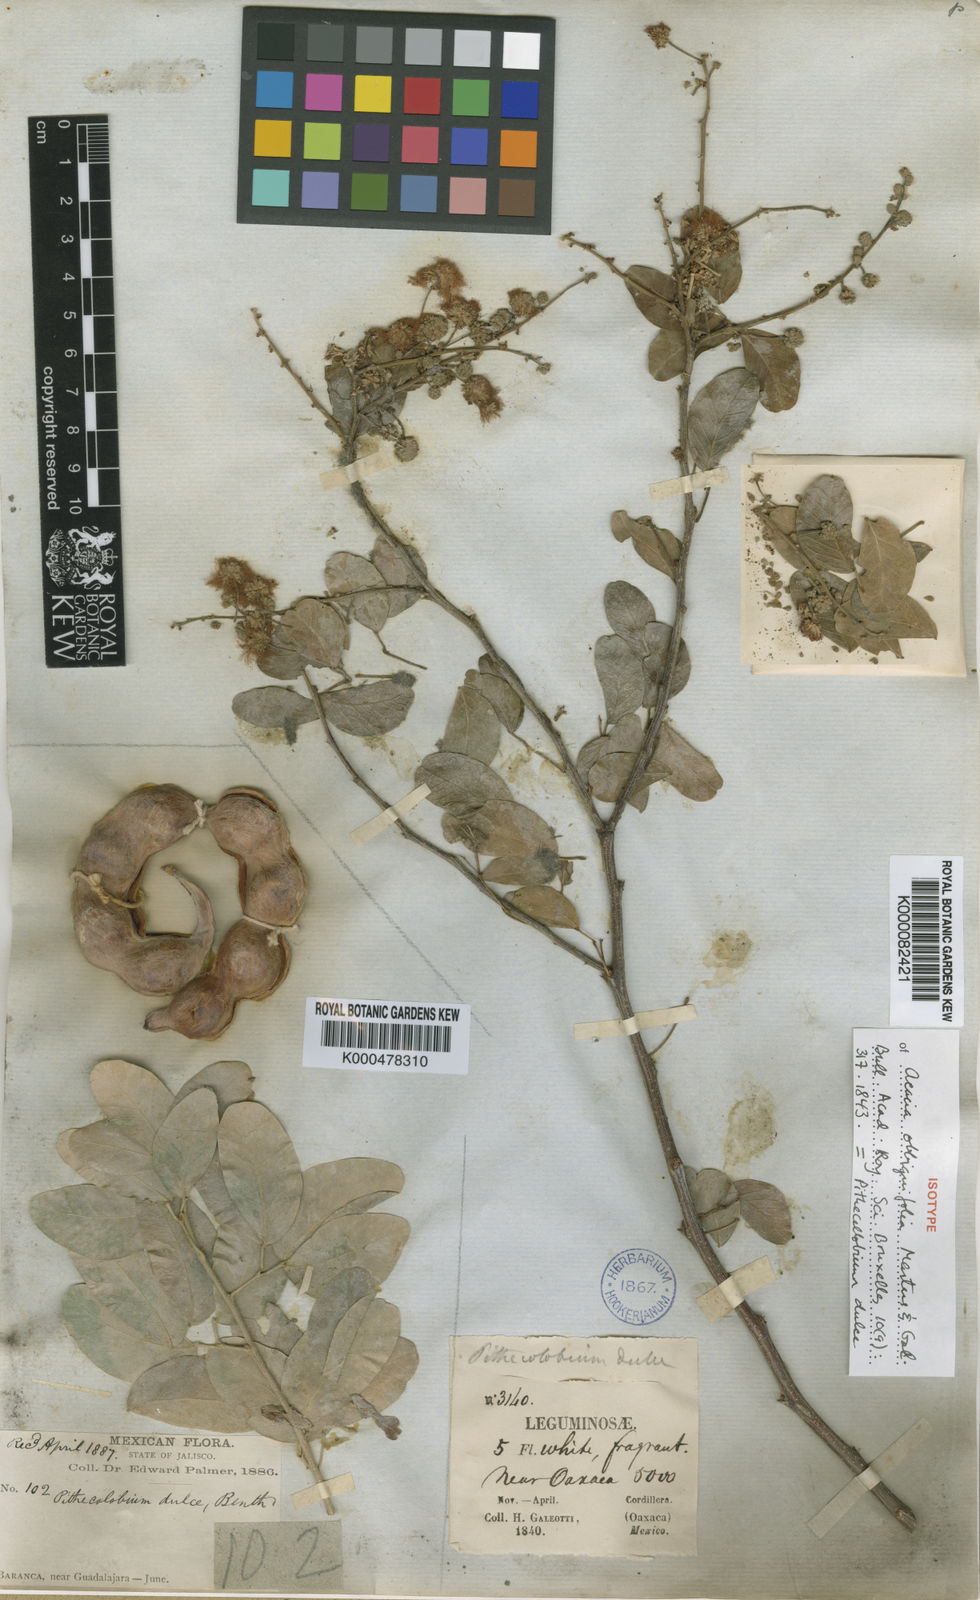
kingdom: Plantae
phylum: Tracheophyta
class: Magnoliopsida
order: Fabales
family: Fabaceae
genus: Pithecellobium
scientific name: Pithecellobium dulce
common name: Monkeypod
